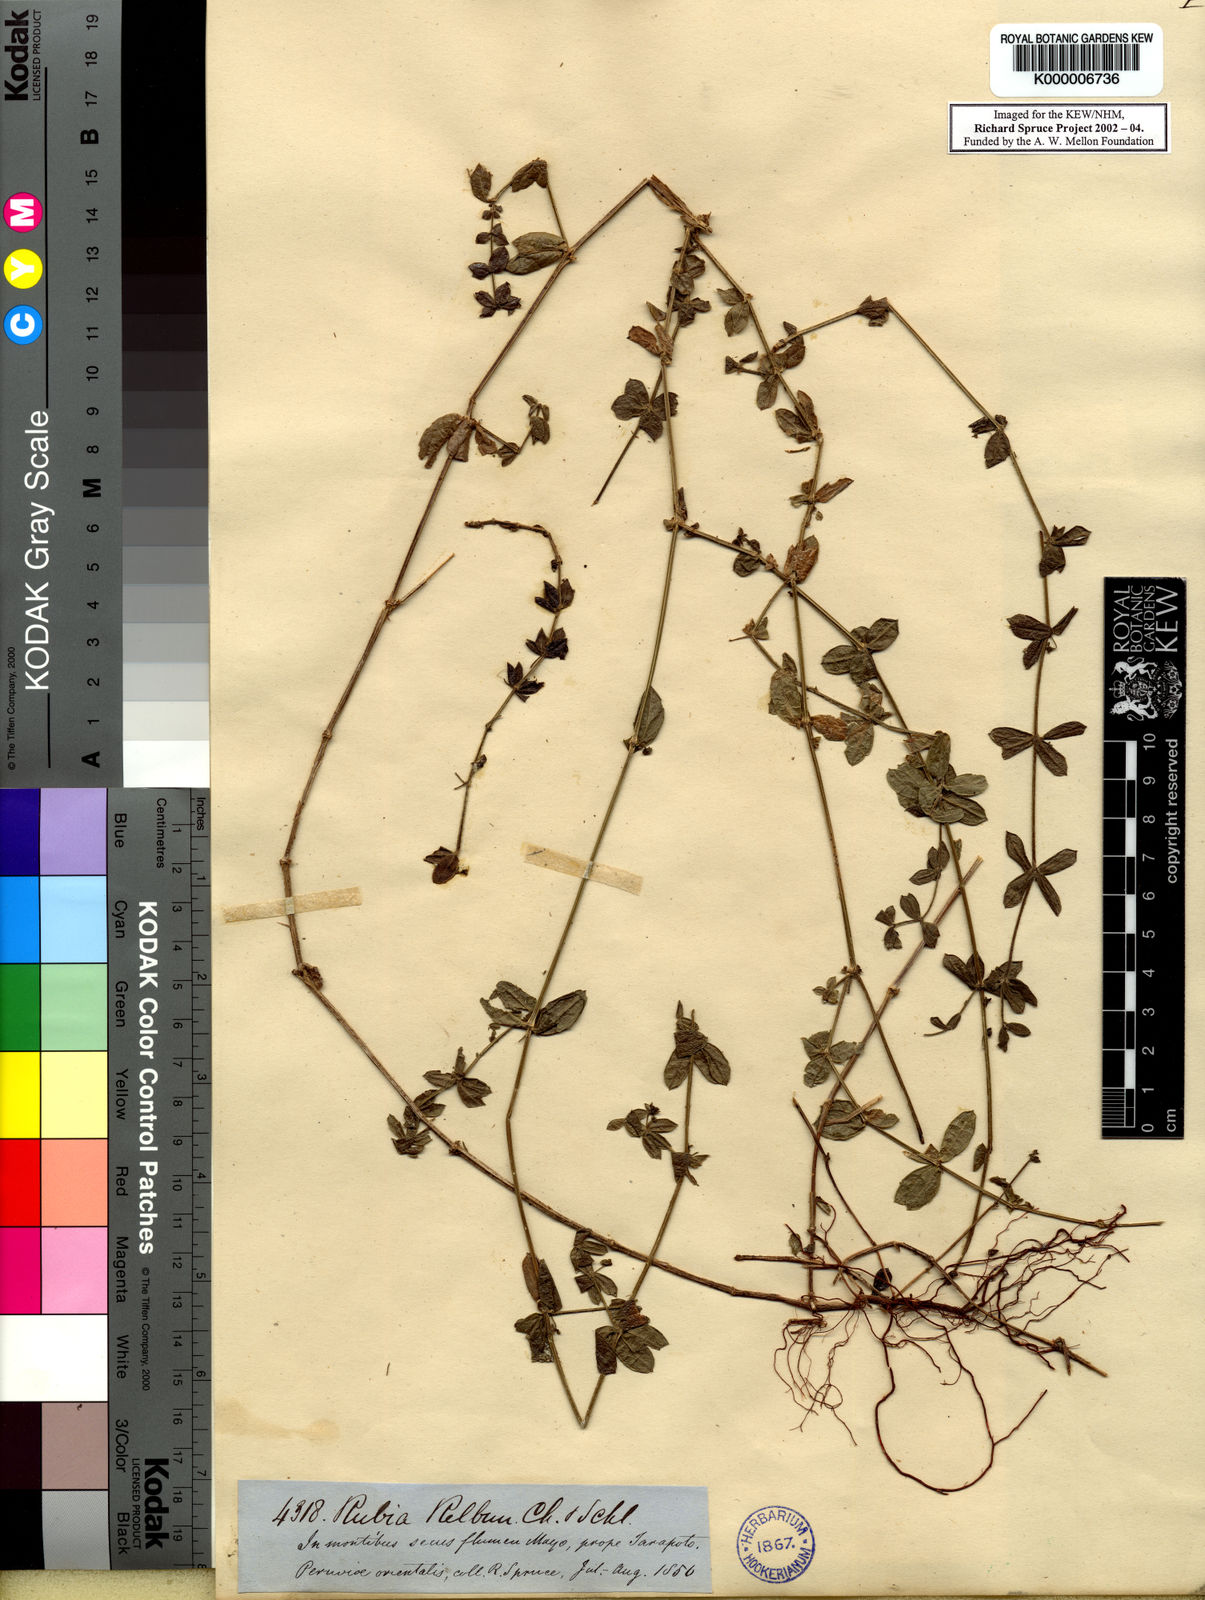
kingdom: Plantae
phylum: Tracheophyta
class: Magnoliopsida
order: Gentianales
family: Rubiaceae
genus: Galium
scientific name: Galium hypocarpium
